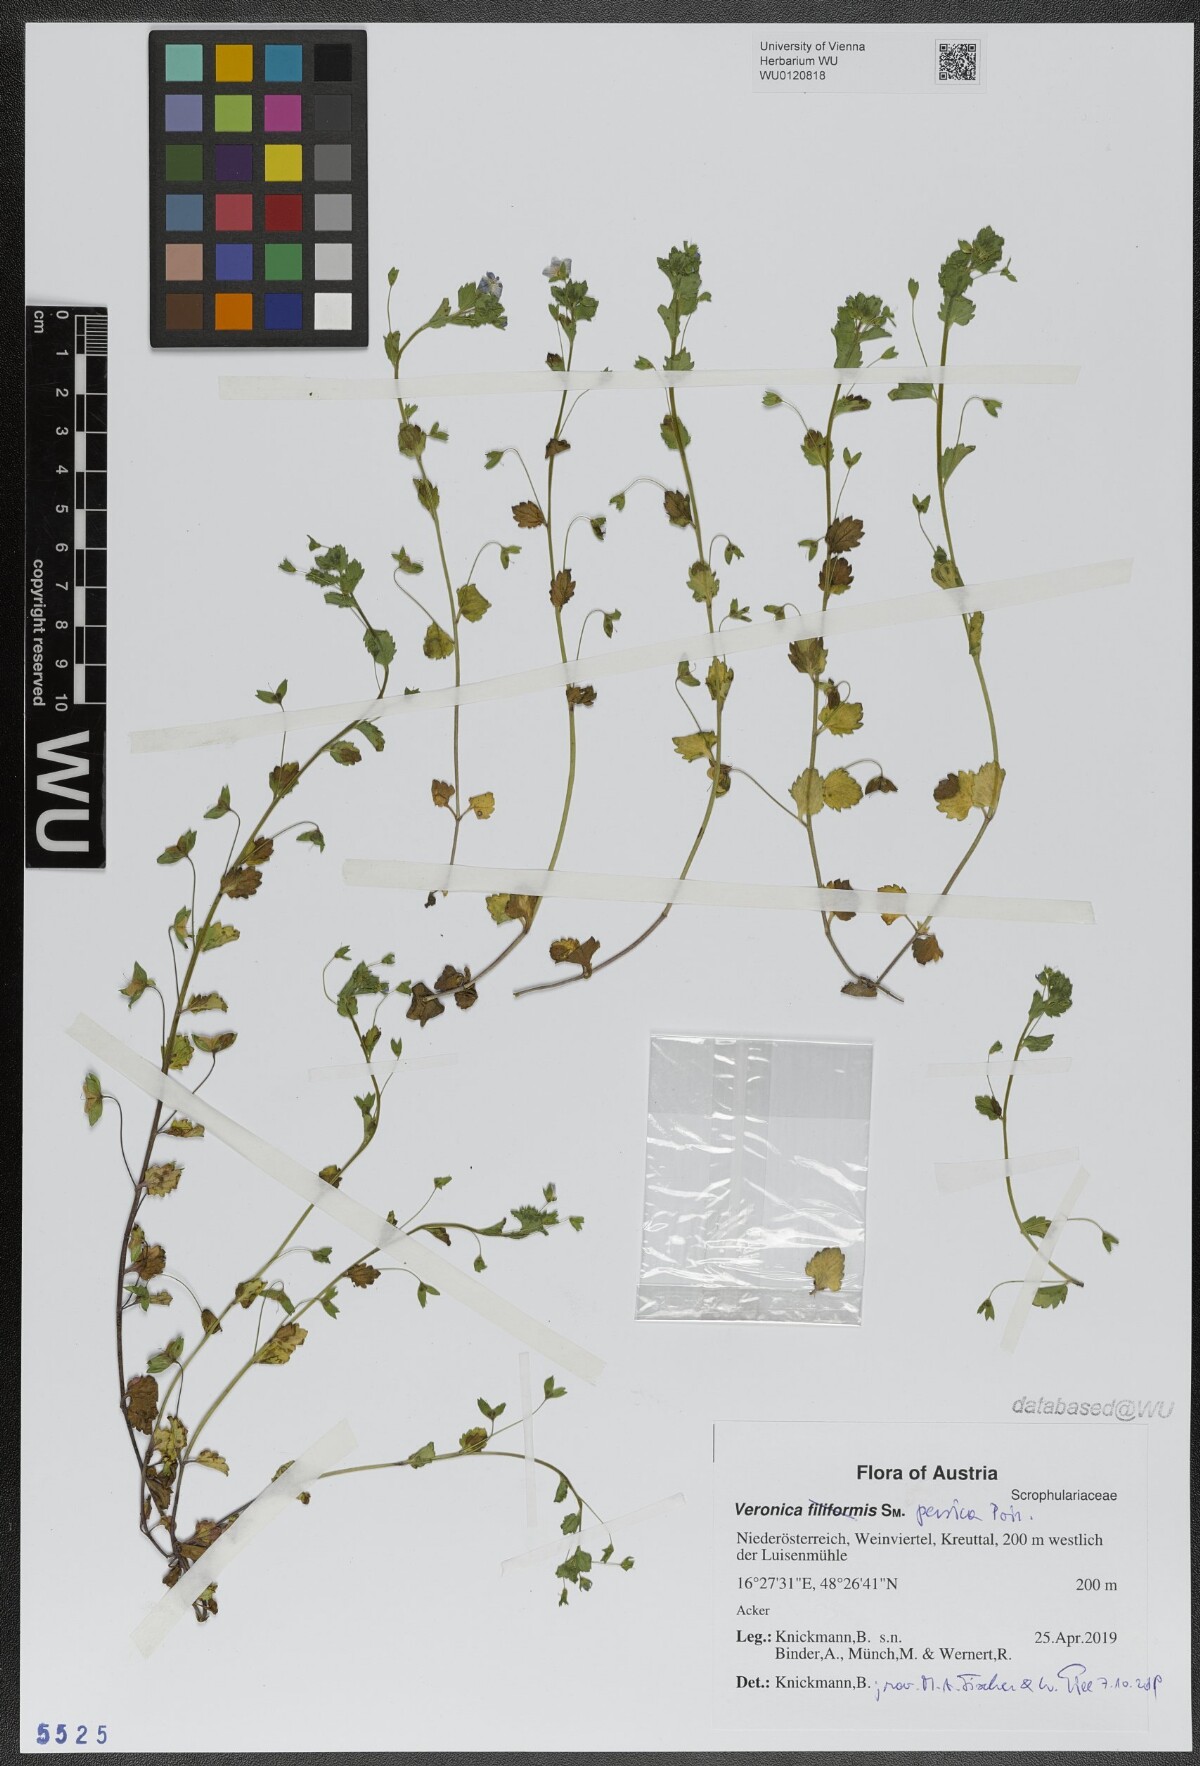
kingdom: Plantae
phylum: Tracheophyta
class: Magnoliopsida
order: Lamiales
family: Plantaginaceae
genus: Veronica
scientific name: Veronica persica
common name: Common field-speedwell
